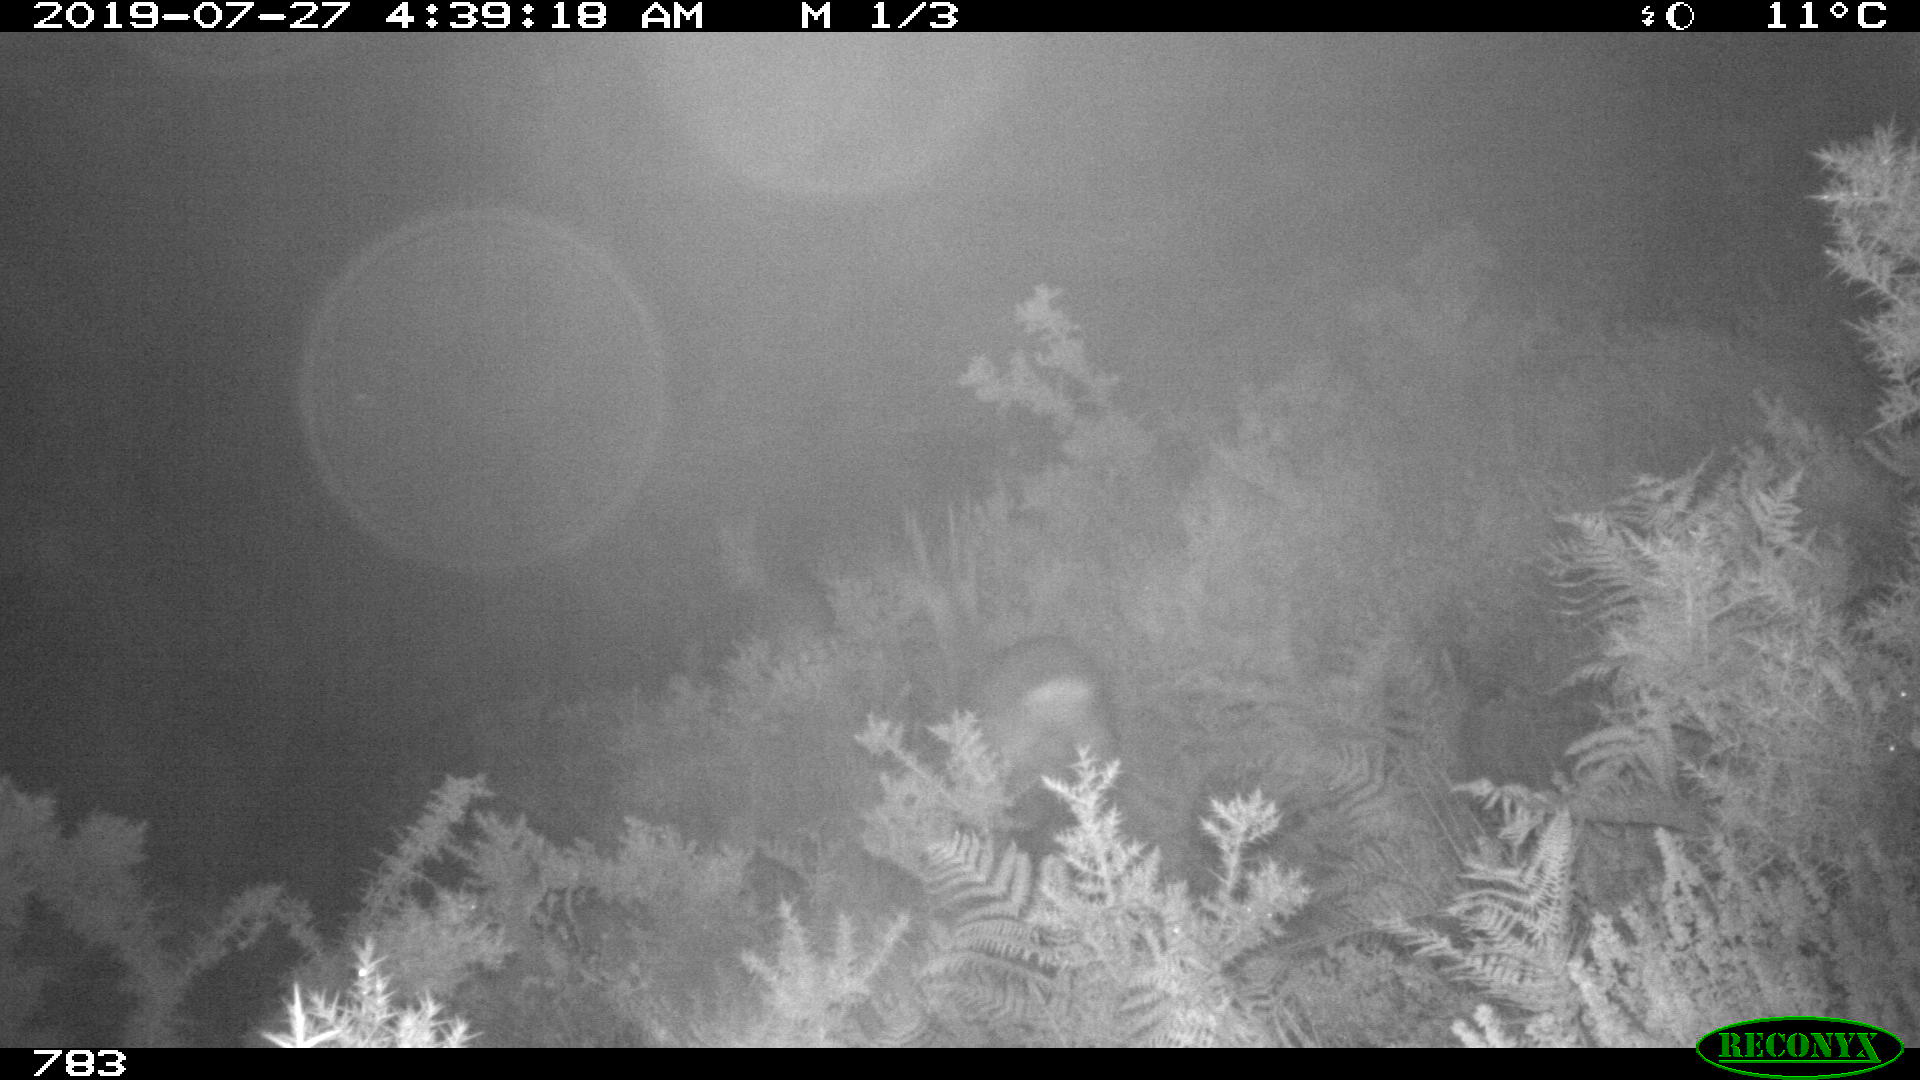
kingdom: Animalia
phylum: Chordata
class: Mammalia
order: Artiodactyla
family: Cervidae
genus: Capreolus
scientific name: Capreolus capreolus
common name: Western roe deer
